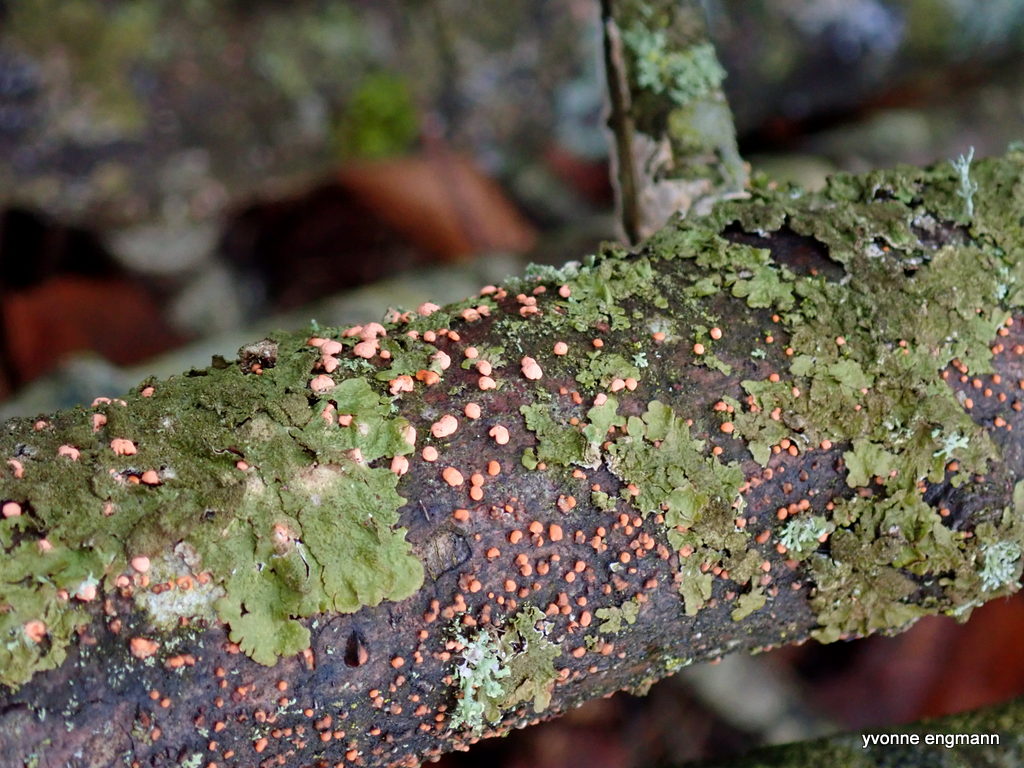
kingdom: Fungi
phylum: Ascomycota
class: Sordariomycetes
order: Hypocreales
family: Nectriaceae
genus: Nectria
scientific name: Nectria cinnabarina
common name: almindelig cinnobersvamp
